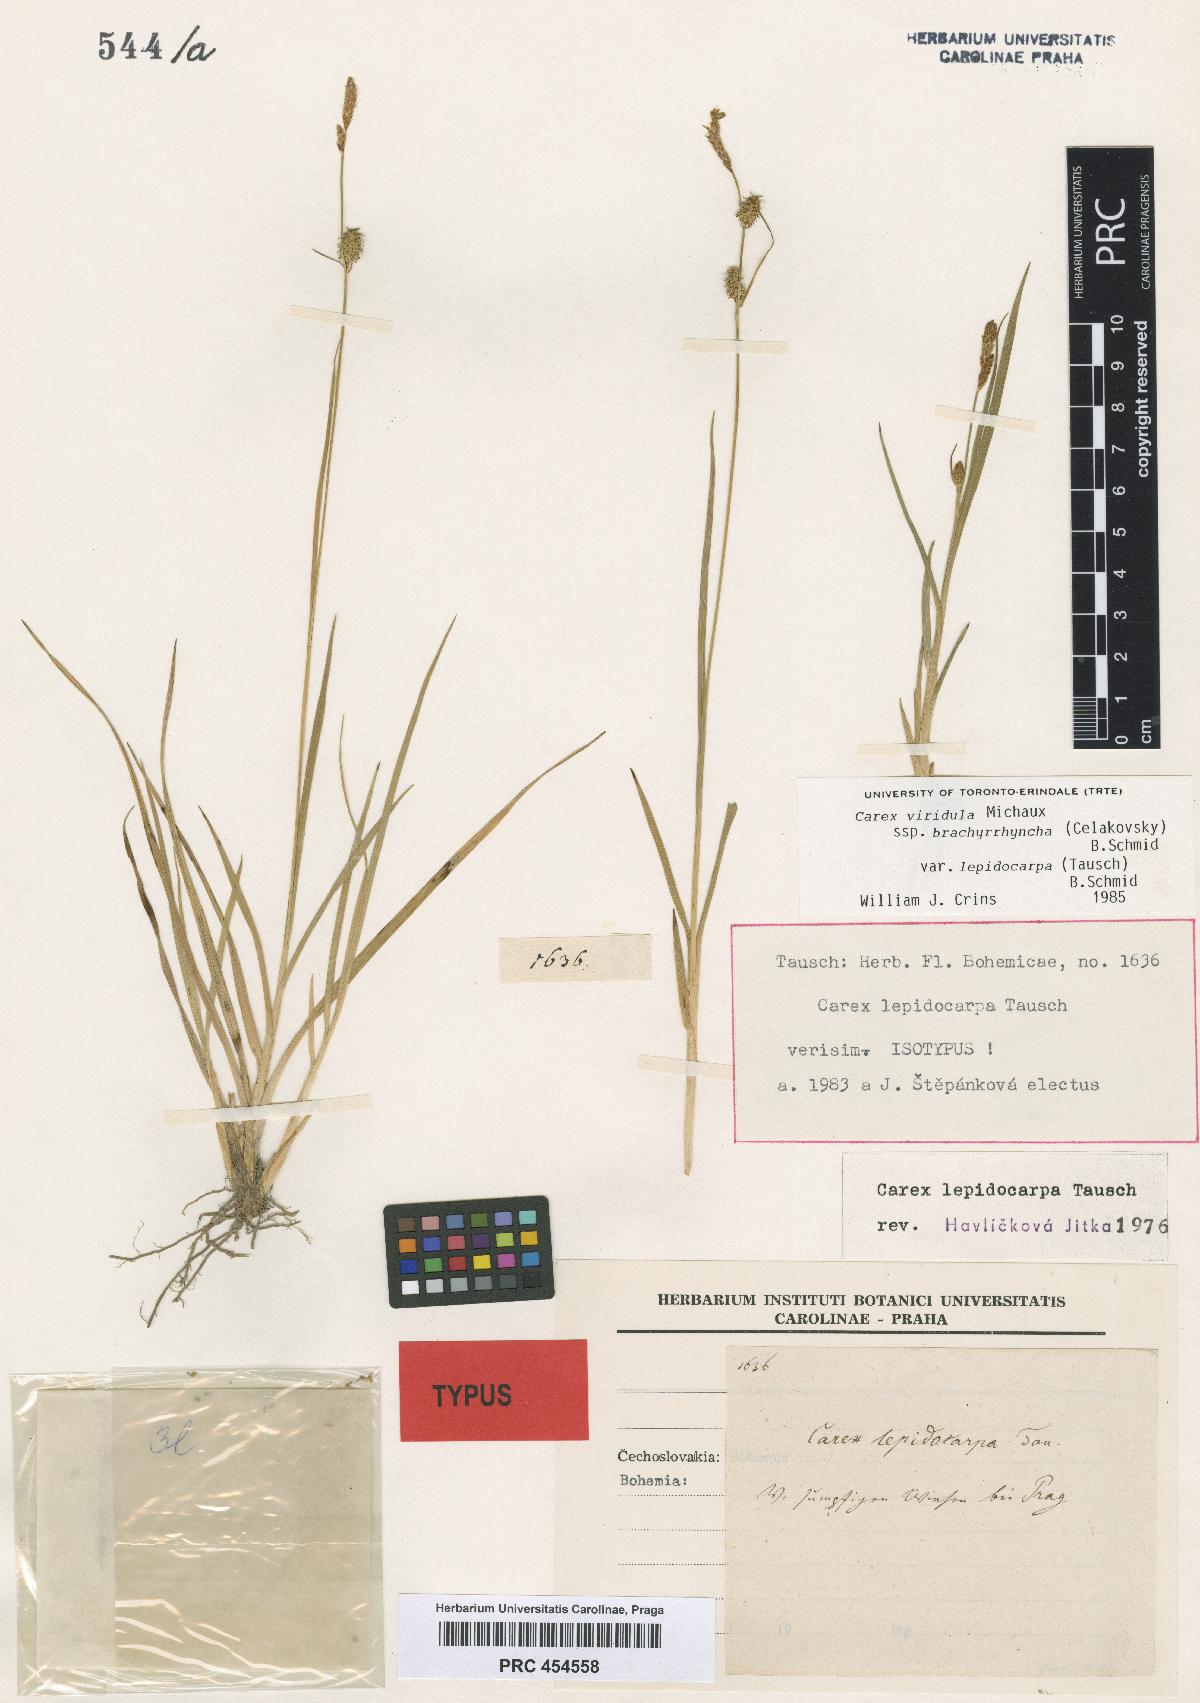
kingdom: Plantae
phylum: Tracheophyta
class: Liliopsida
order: Poales
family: Cyperaceae
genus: Carex
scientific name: Carex lepidocarpa
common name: Long-stalked yellow-sedge
